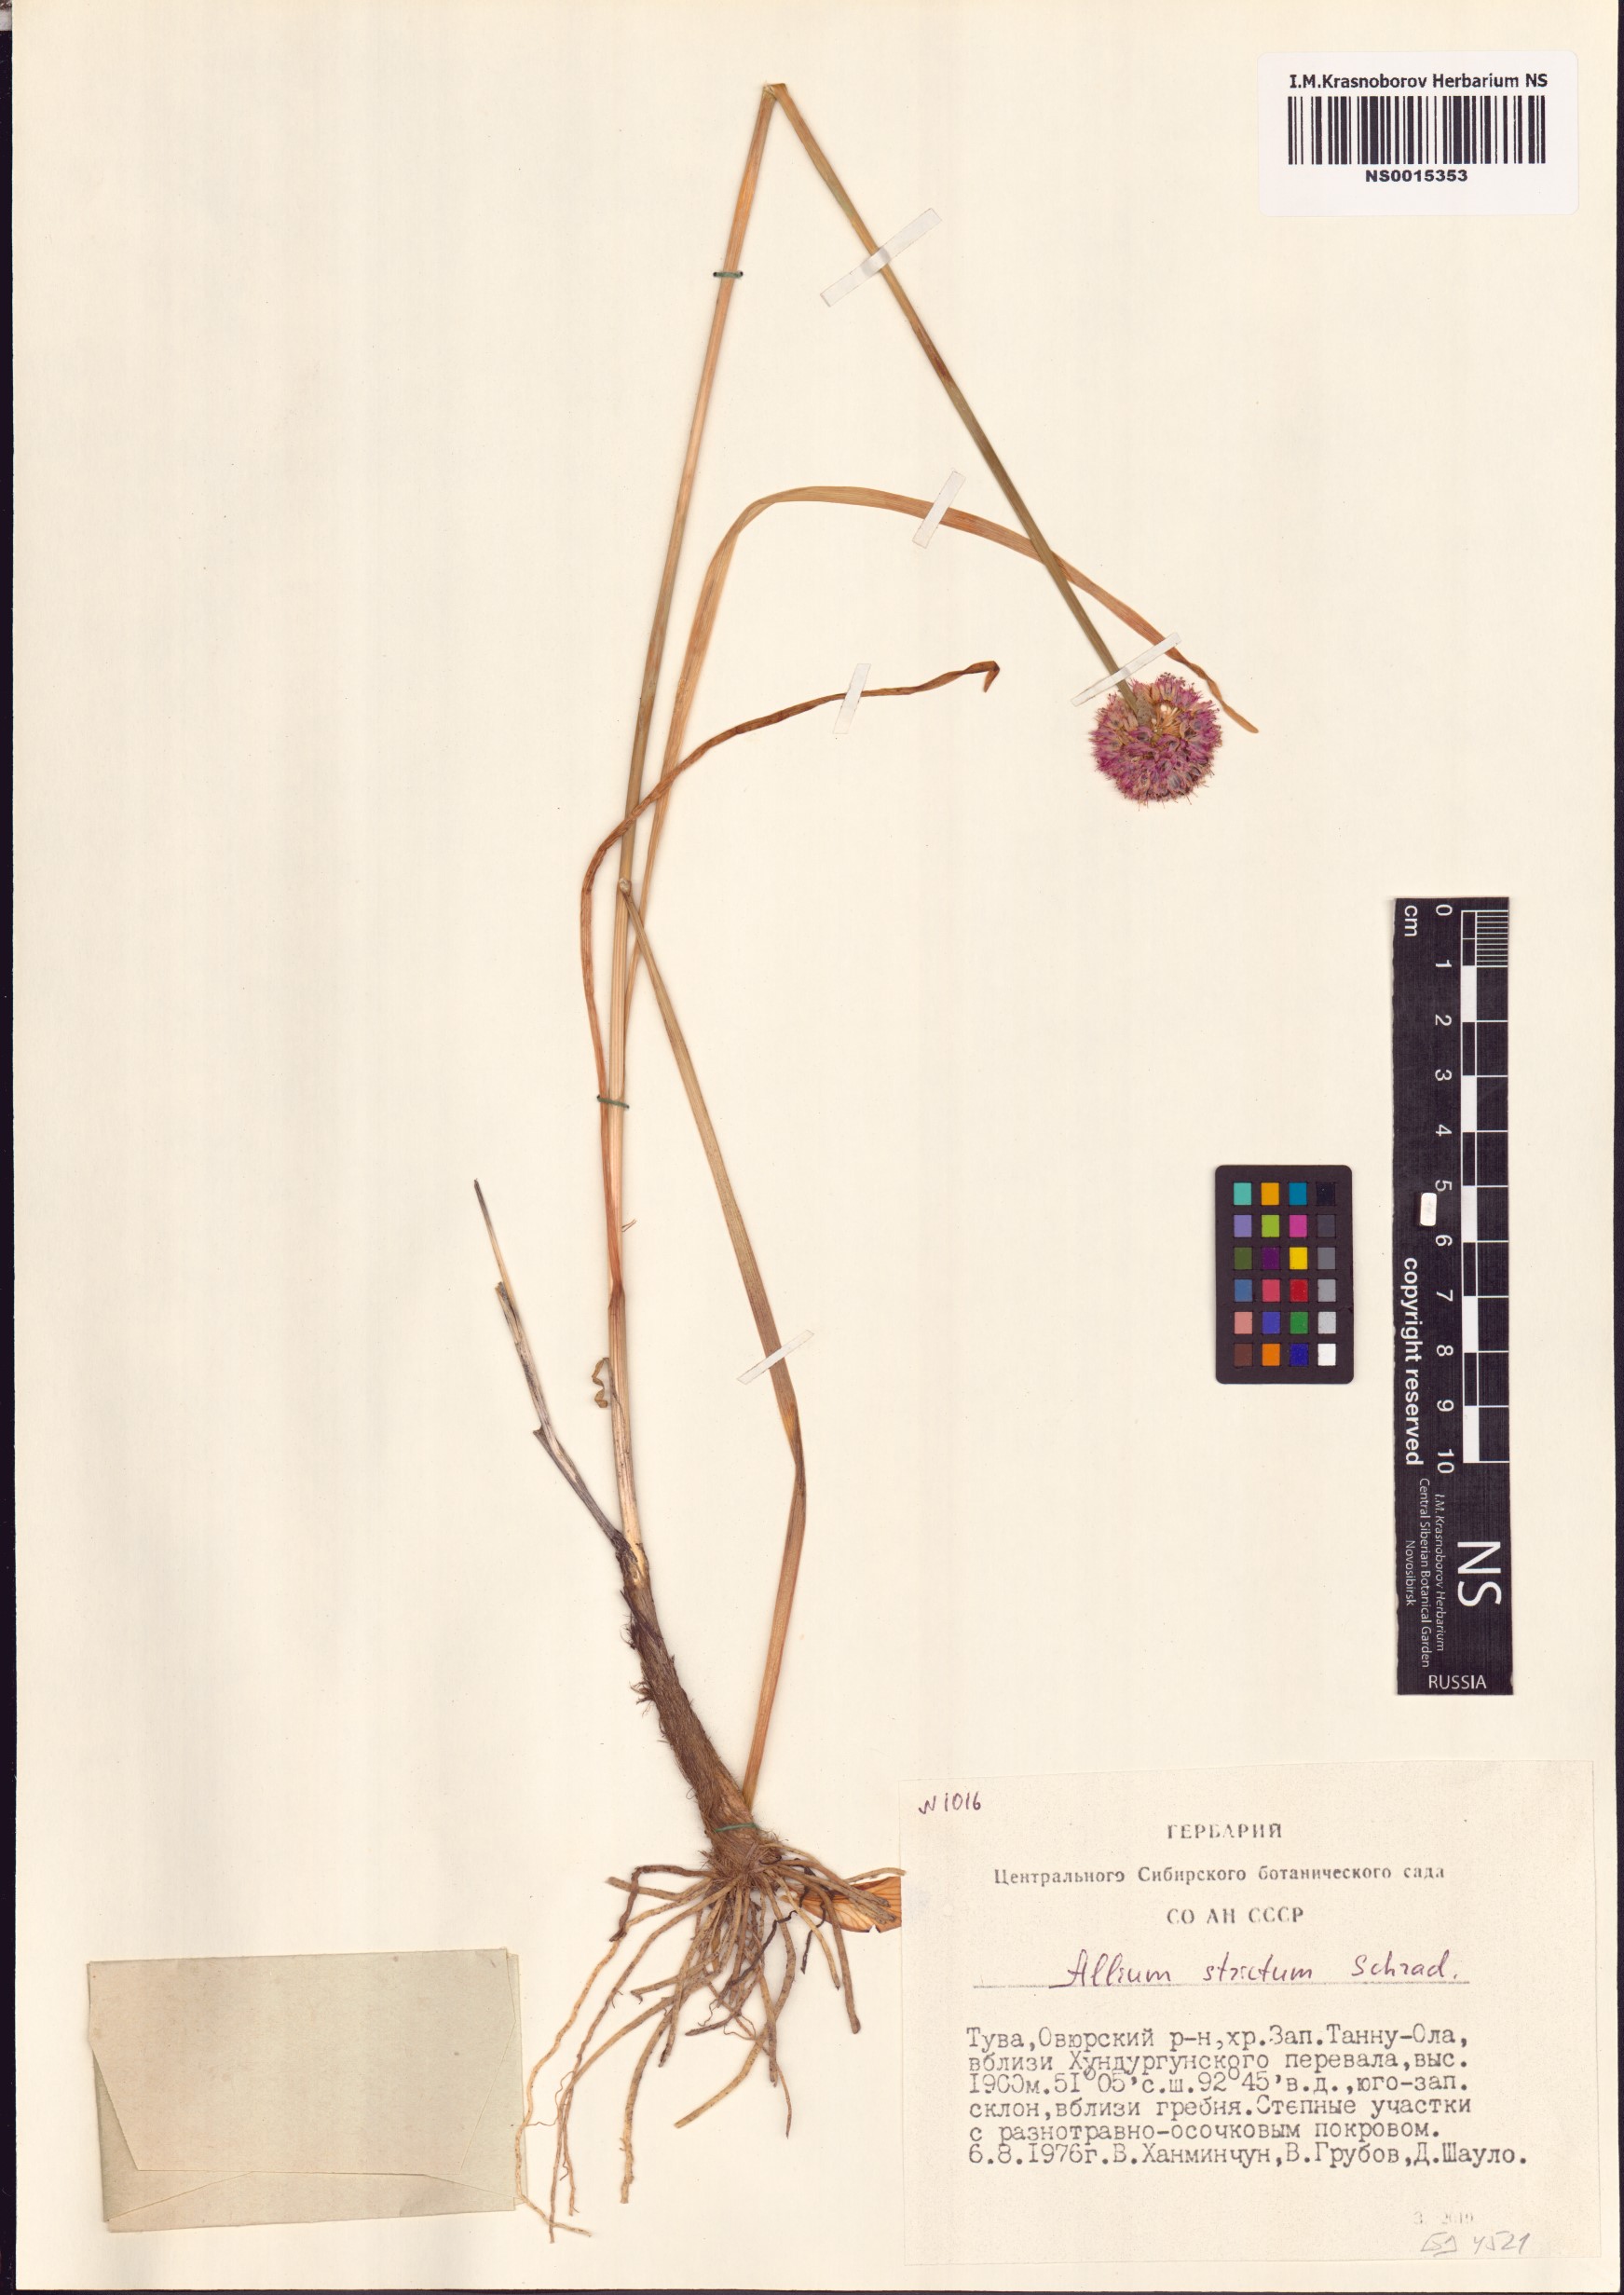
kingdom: Plantae
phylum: Tracheophyta
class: Liliopsida
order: Asparagales
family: Amaryllidaceae
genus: Allium
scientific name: Allium strictum
